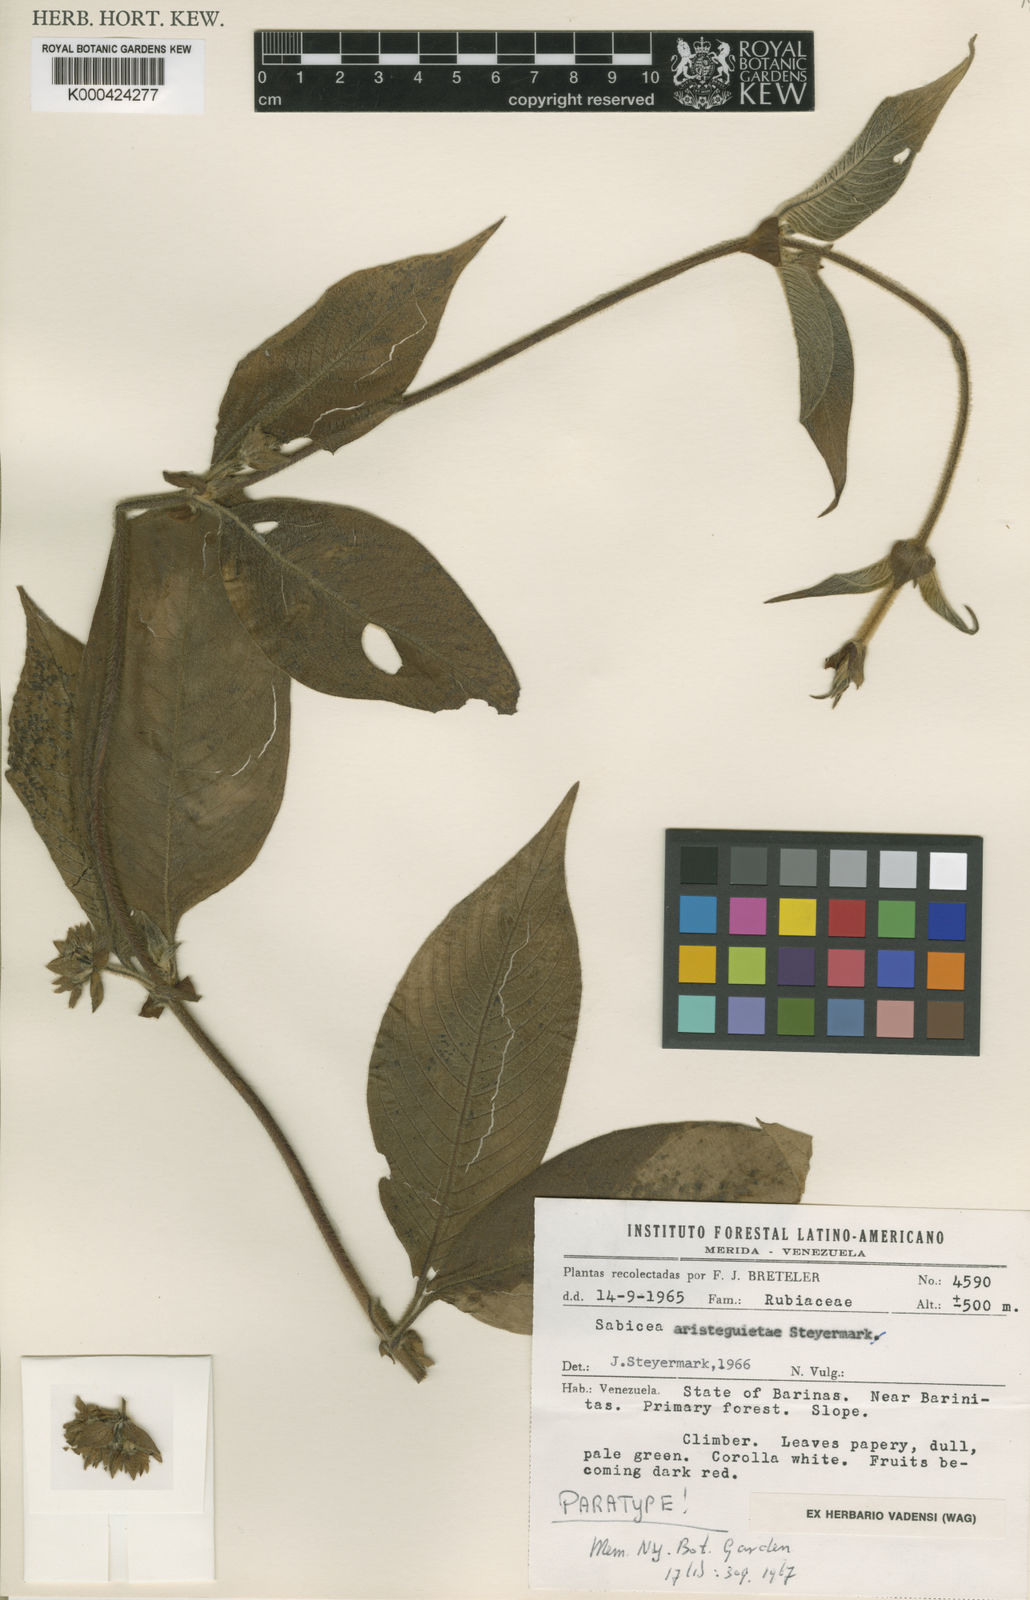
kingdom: Plantae
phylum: Tracheophyta
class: Magnoliopsida
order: Gentianales
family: Rubiaceae
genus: Sabicea
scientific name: Sabicea aristeguietae
